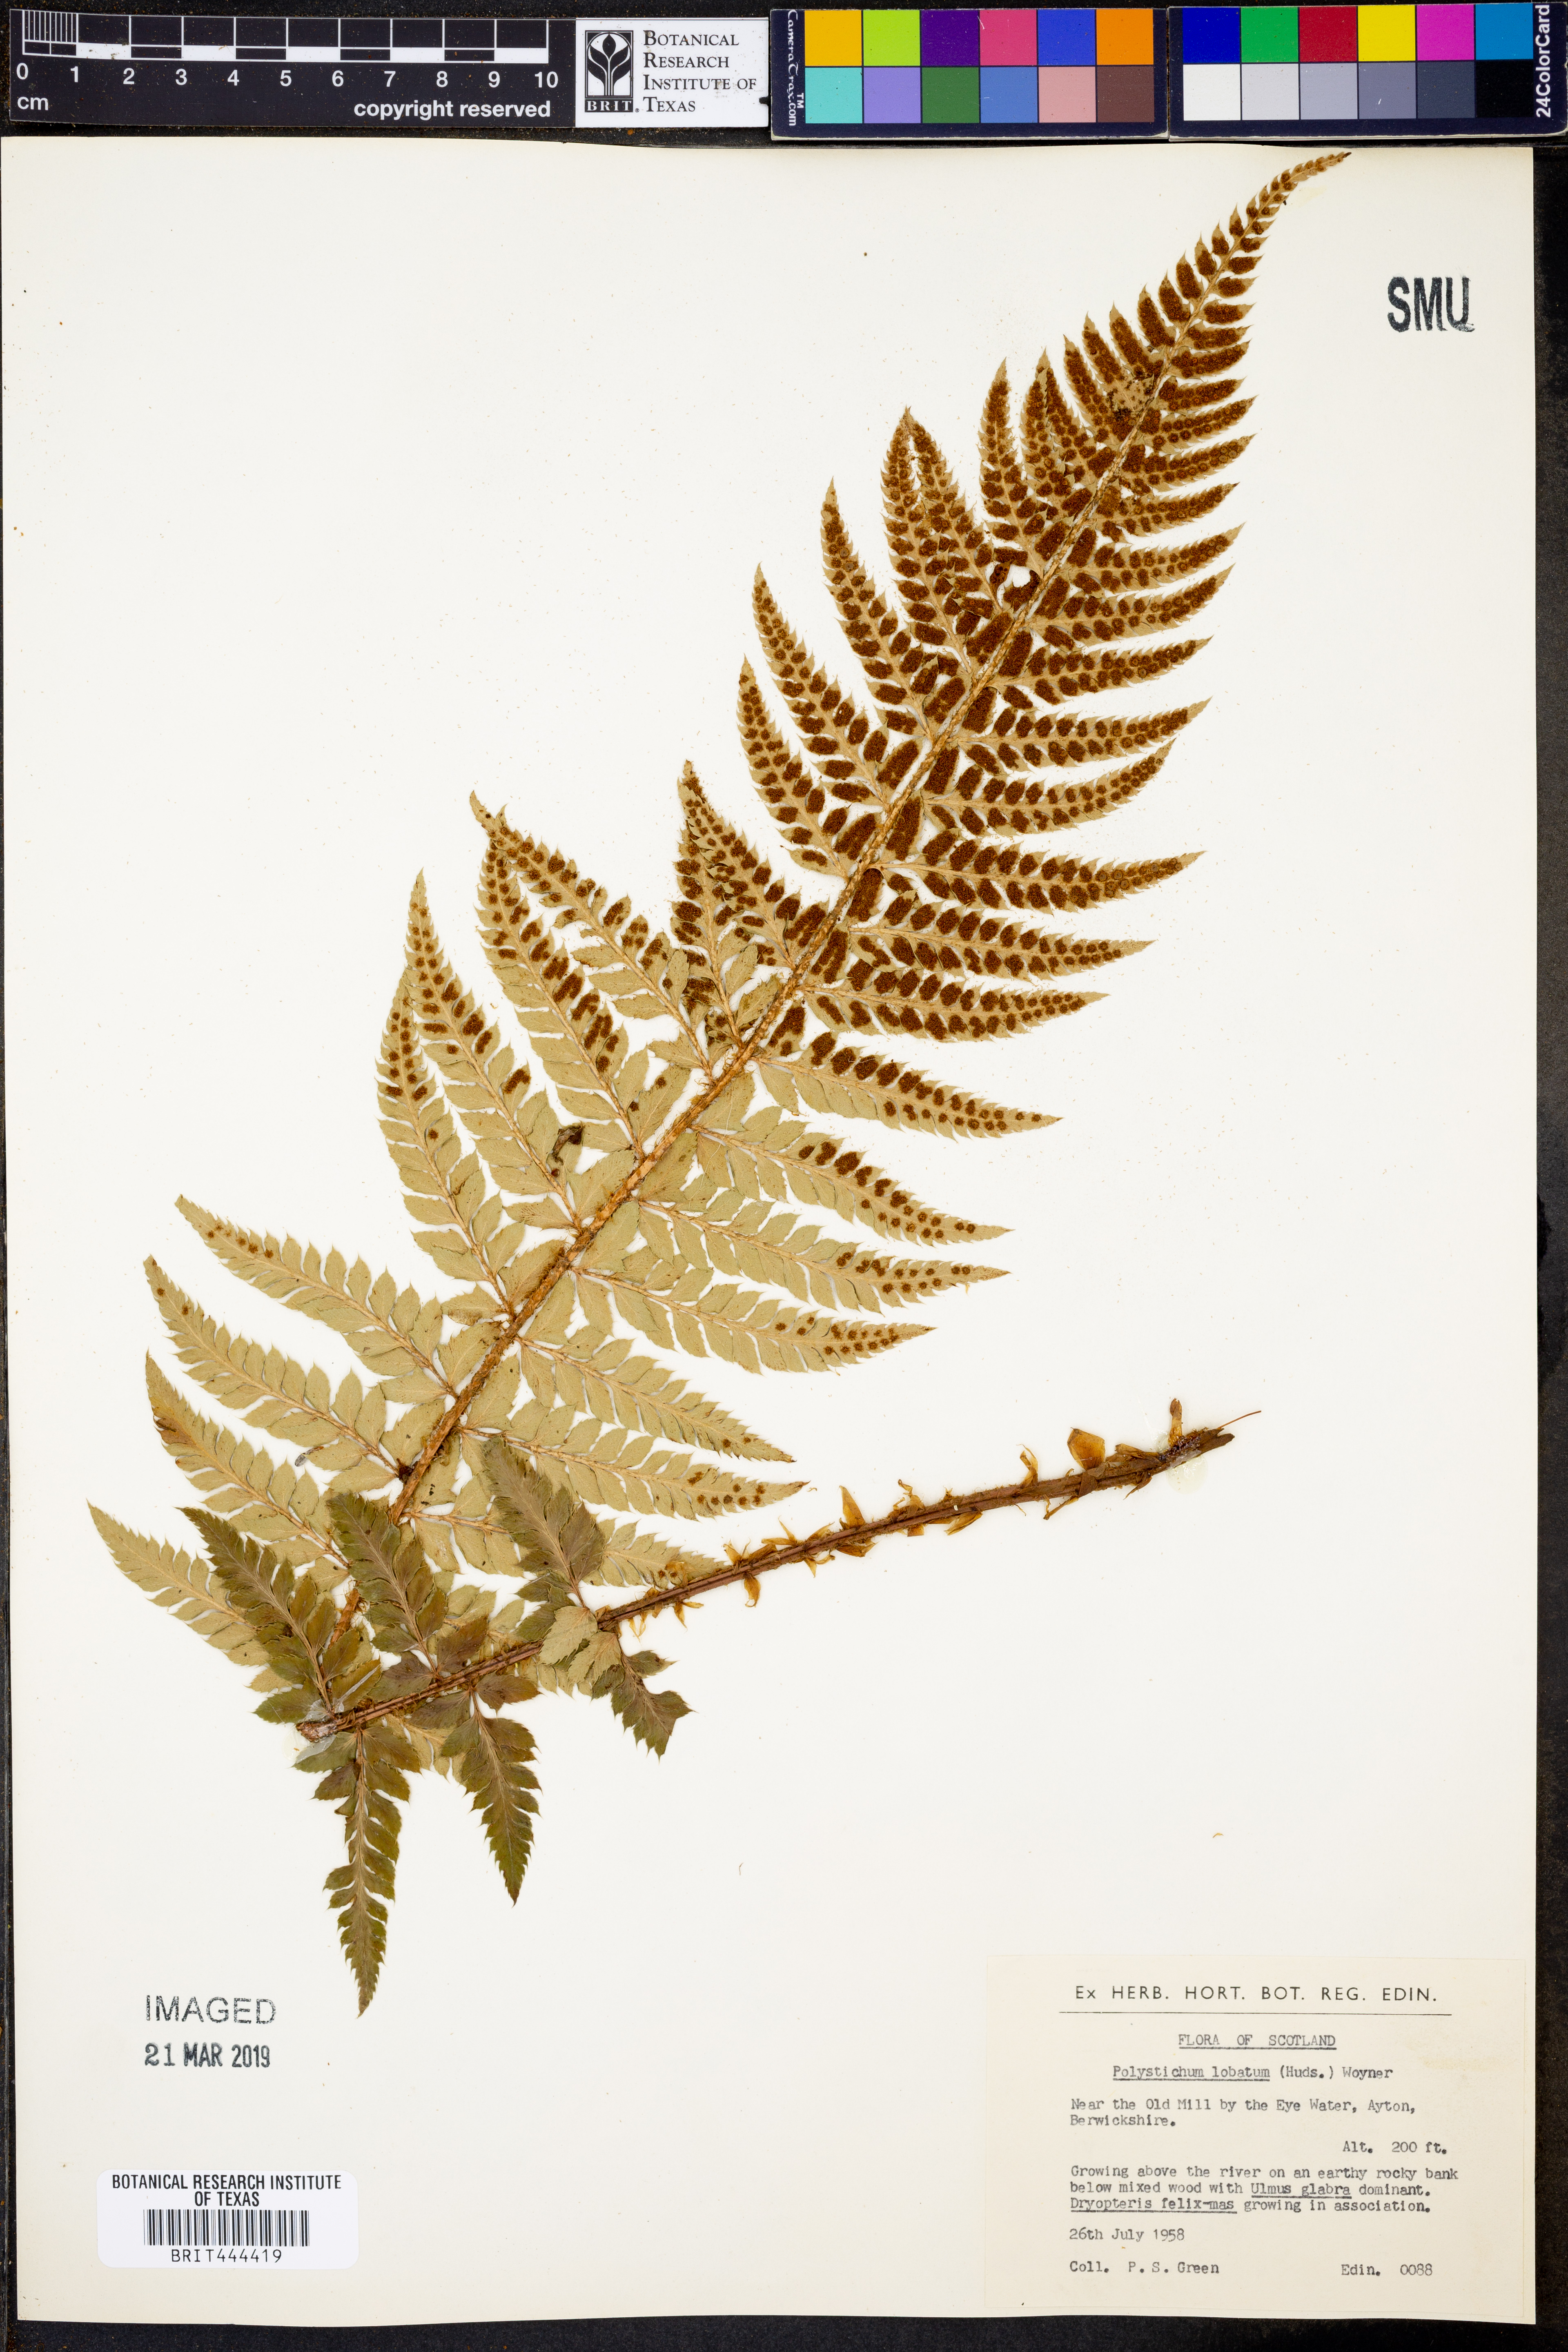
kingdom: Plantae
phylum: Tracheophyta
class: Polypodiopsida
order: Polypodiales
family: Dryopteridaceae
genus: Polystichum
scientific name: Polystichum aculeatum
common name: Hard shield-fern
